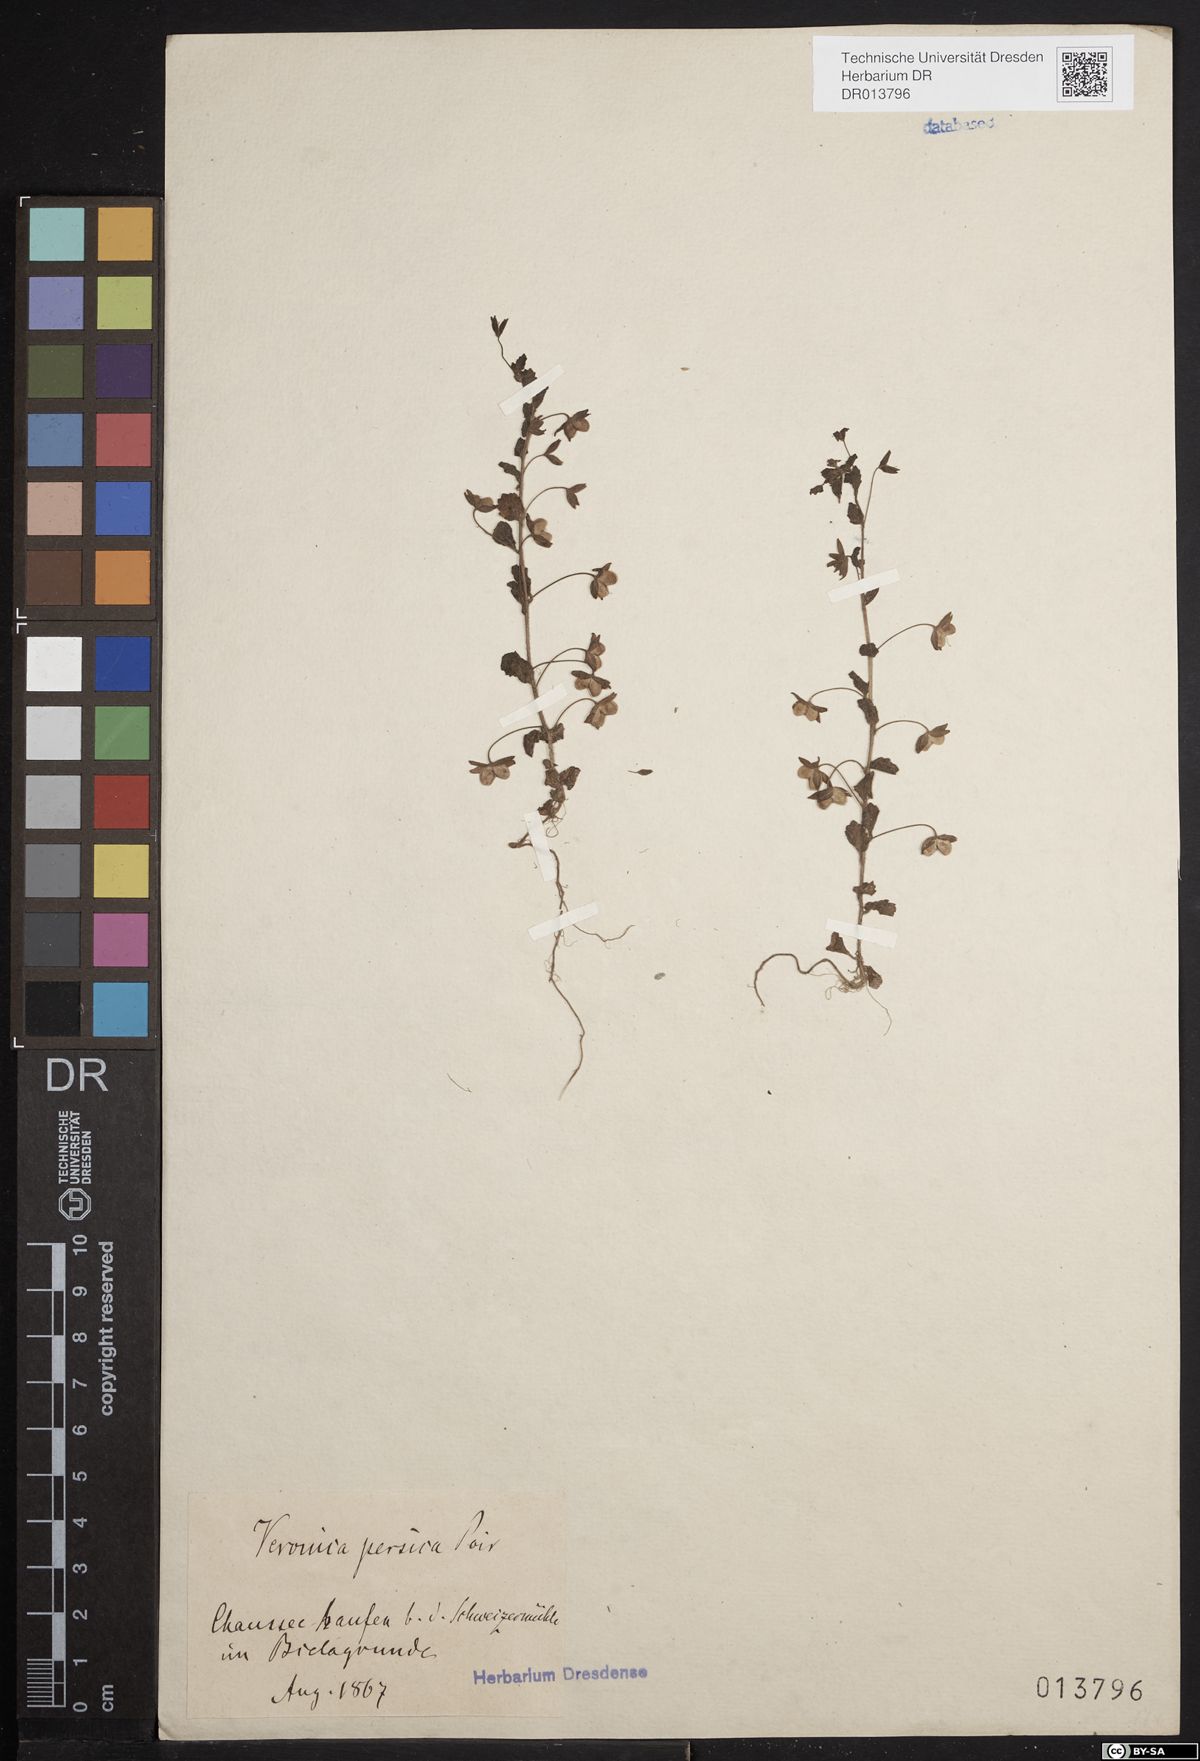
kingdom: Plantae
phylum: Tracheophyta
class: Magnoliopsida
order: Lamiales
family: Plantaginaceae
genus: Veronica
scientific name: Veronica persica
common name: Common field-speedwell
